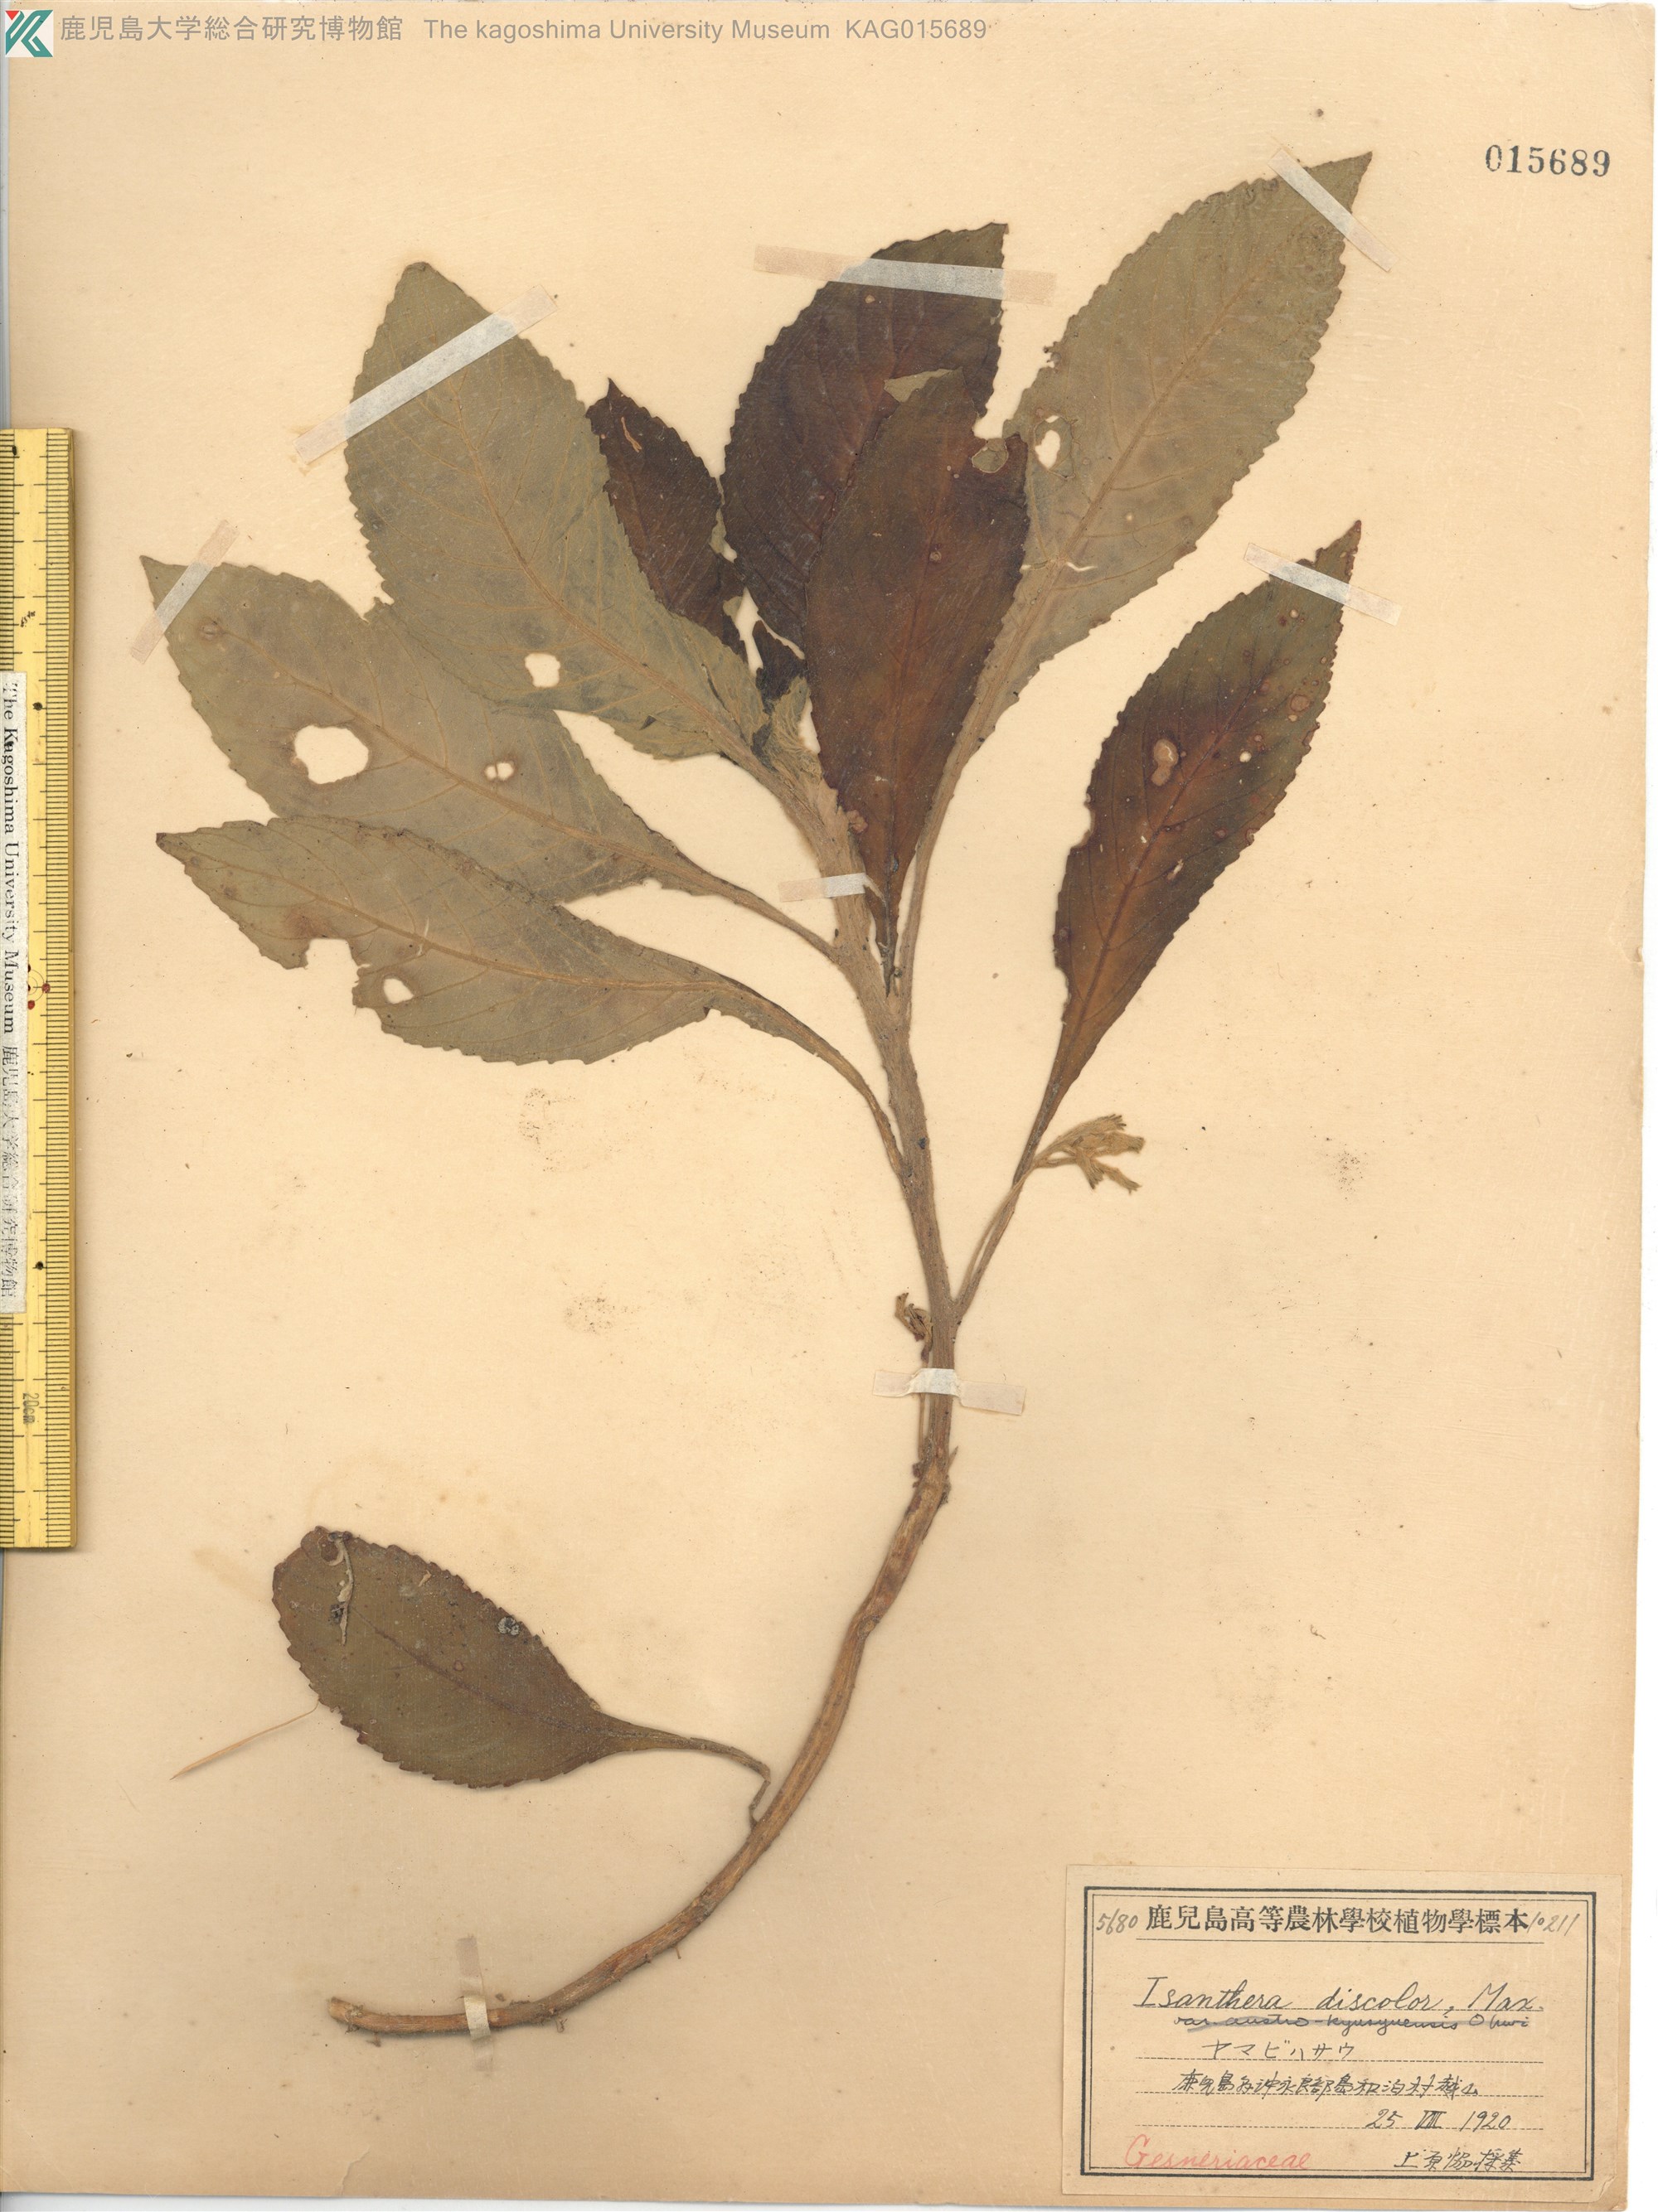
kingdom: Plantae
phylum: Tracheophyta
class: Magnoliopsida
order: Lamiales
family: Gesneriaceae
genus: Rhynchotechum
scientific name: Rhynchotechum discolor
